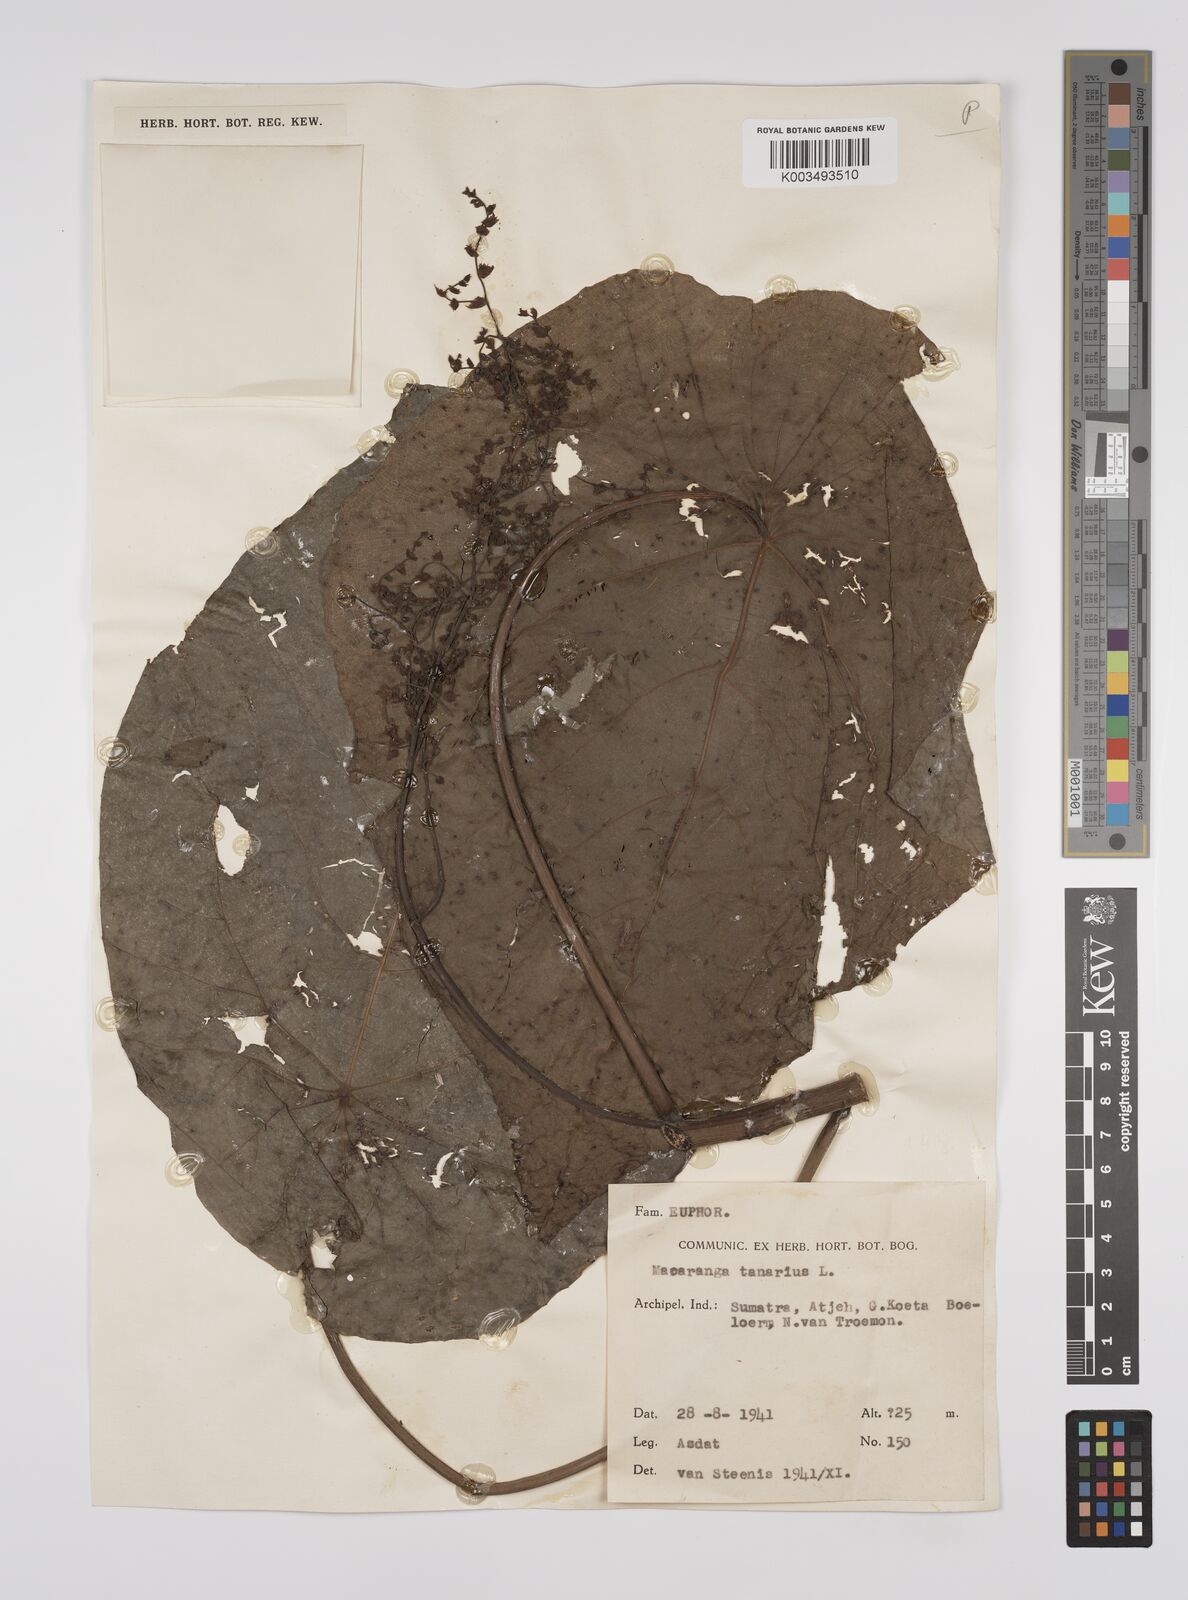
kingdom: Plantae
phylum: Tracheophyta
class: Magnoliopsida
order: Malpighiales
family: Euphorbiaceae
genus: Macaranga
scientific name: Macaranga tanarius
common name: Parasol leaf tree
